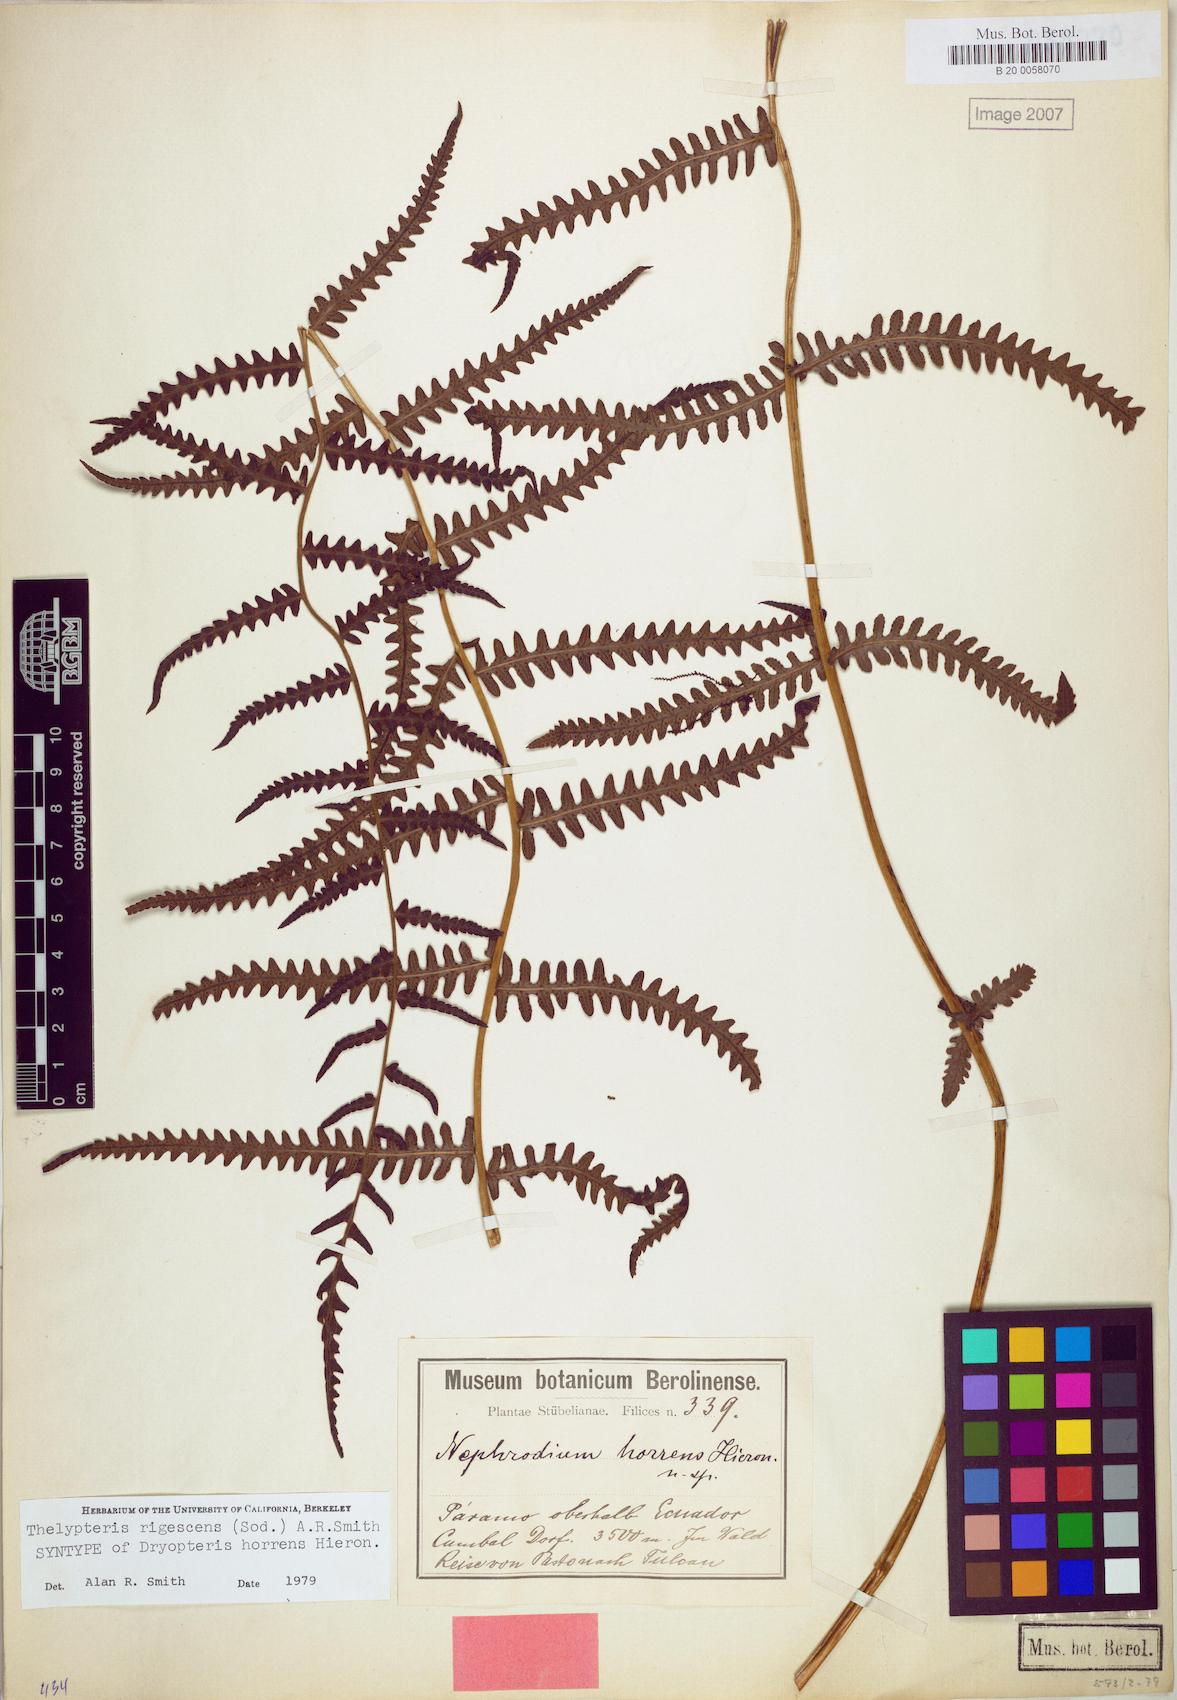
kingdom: Plantae
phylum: Tracheophyta
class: Polypodiopsida
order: Polypodiales
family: Thelypteridaceae
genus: Amauropelta
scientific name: Amauropelta rigescens
